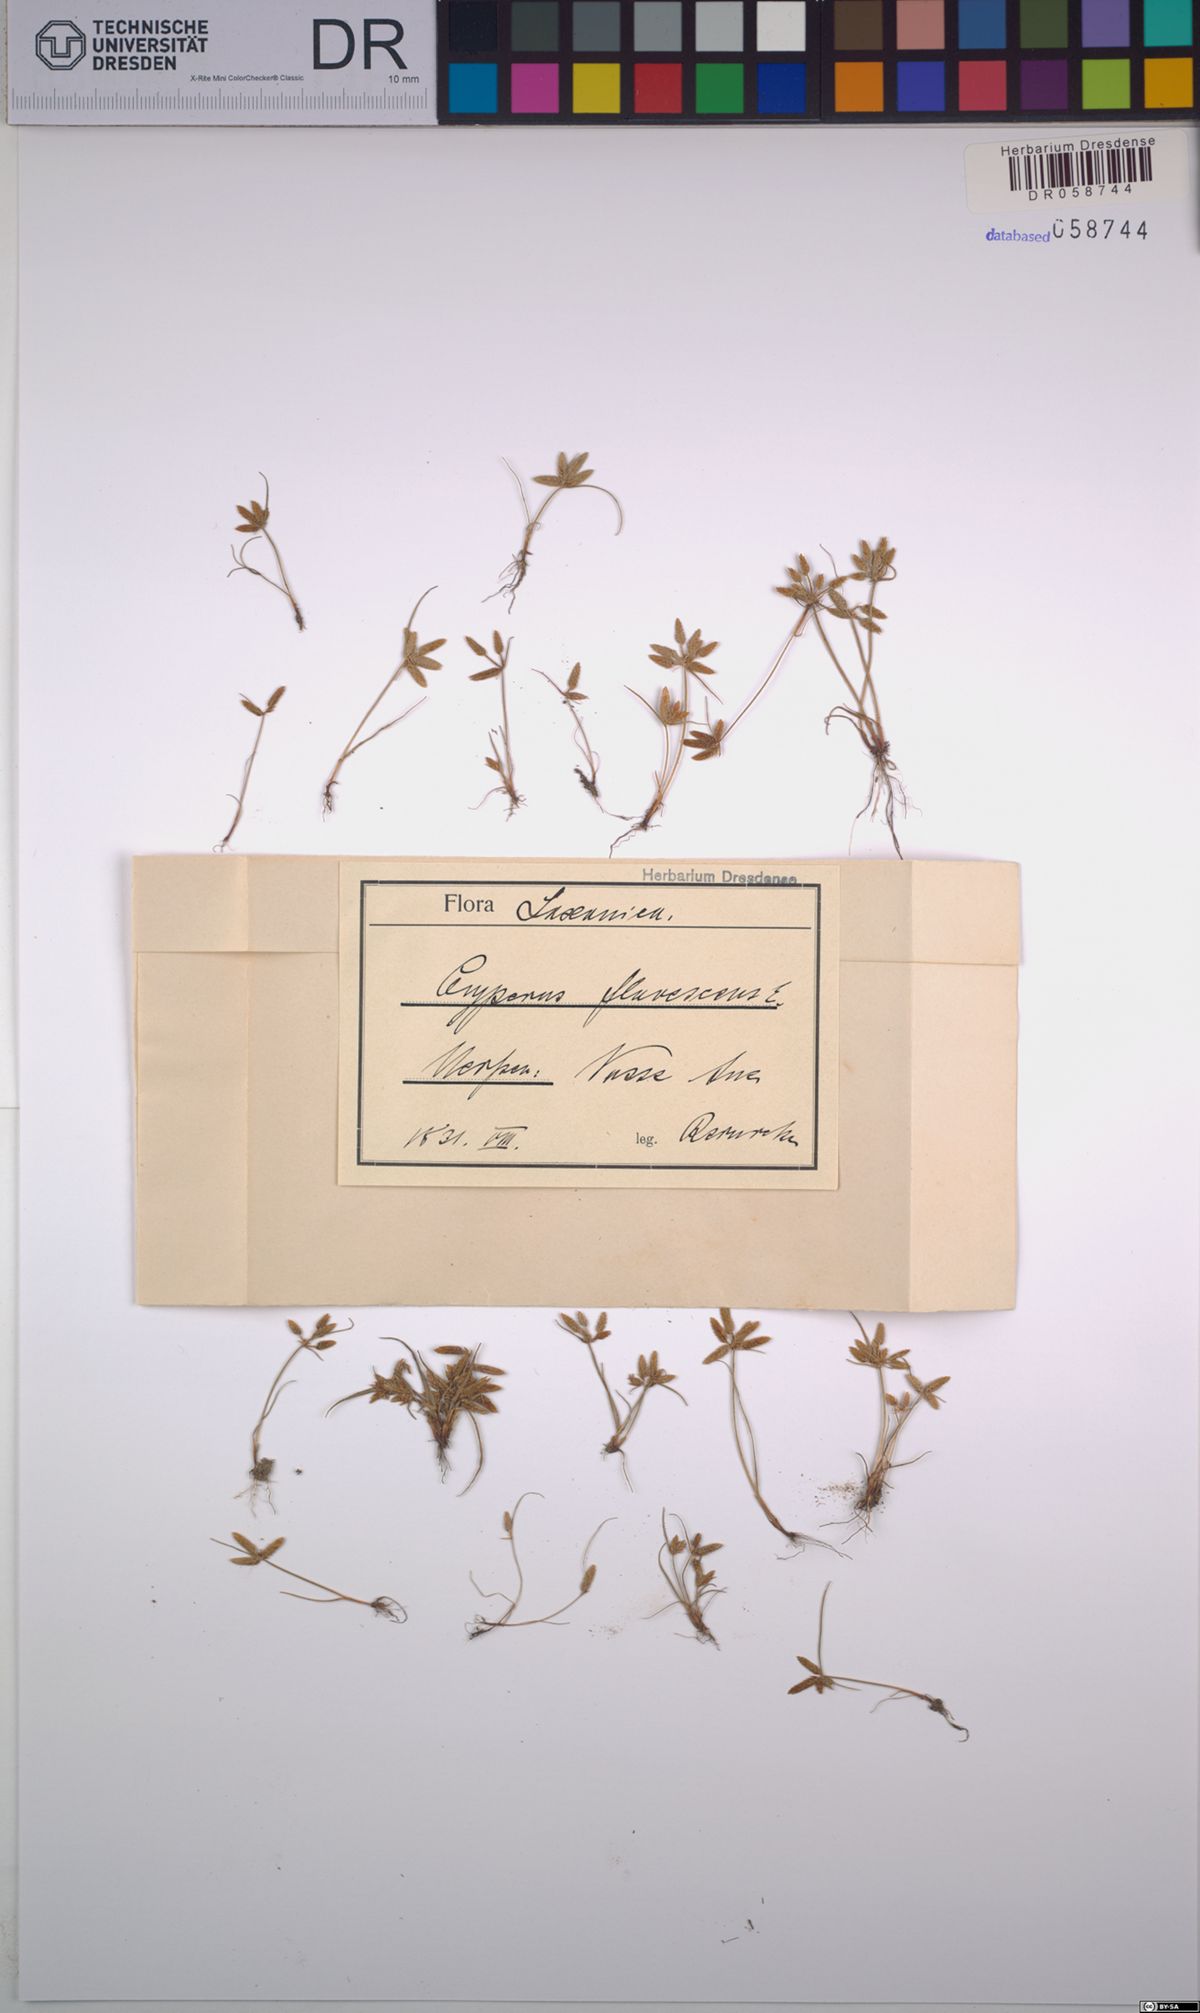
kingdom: Plantae
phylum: Tracheophyta
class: Liliopsida
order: Poales
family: Cyperaceae
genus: Cyperus
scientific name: Cyperus flavescens
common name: Yellow galingale
